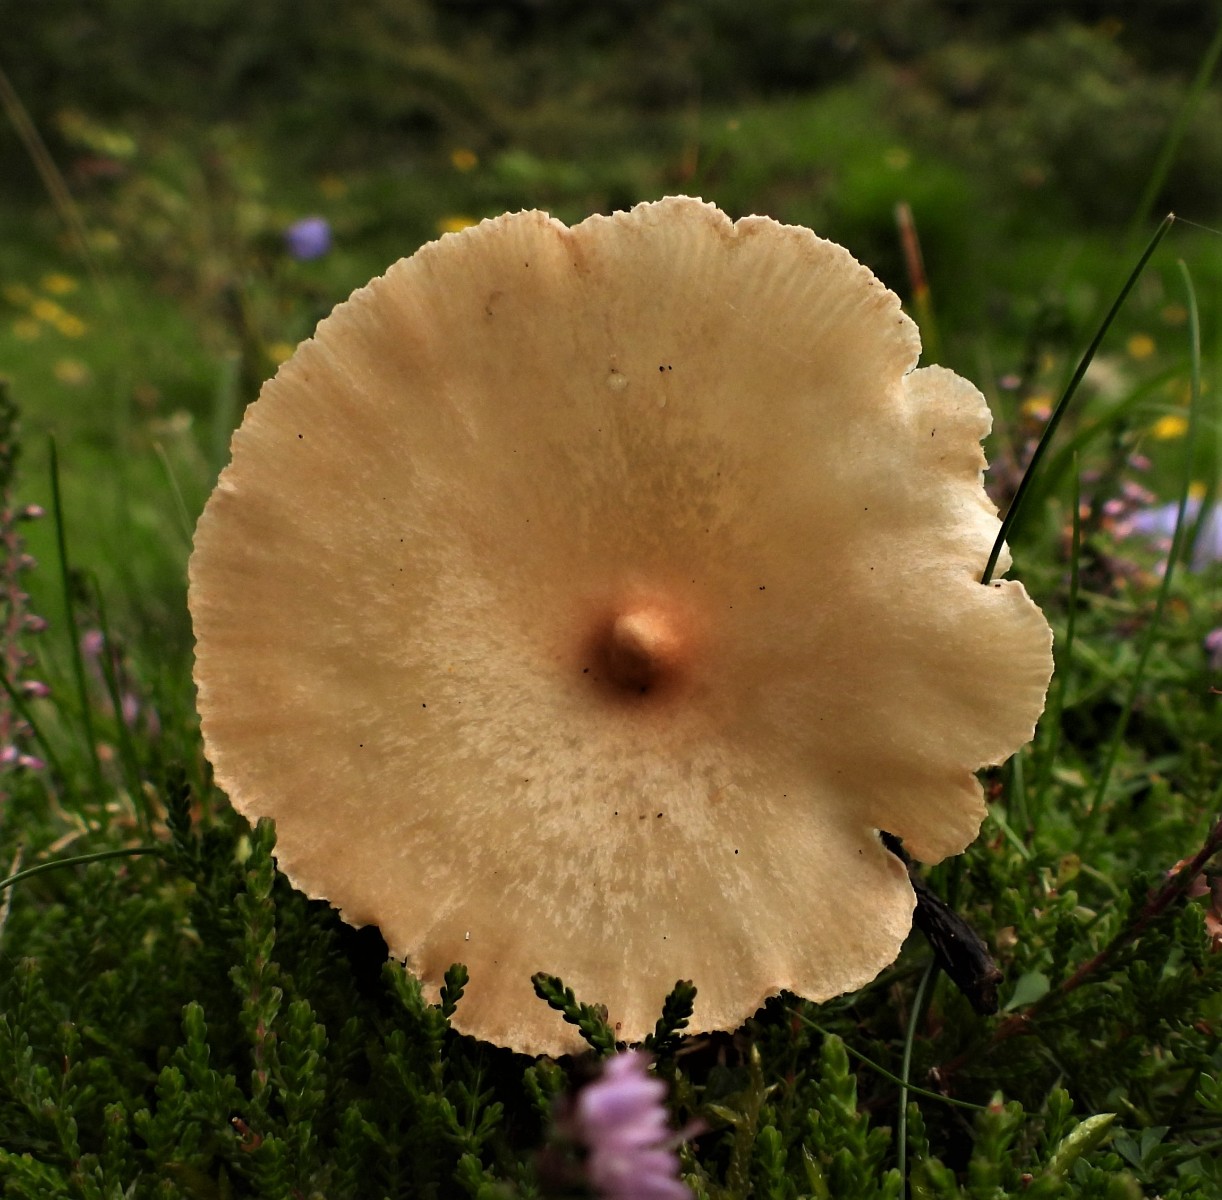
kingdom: Fungi
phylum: Basidiomycota
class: Agaricomycetes
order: Agaricales
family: Tricholomataceae
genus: Infundibulicybe
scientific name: Infundibulicybe
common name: tragthat
